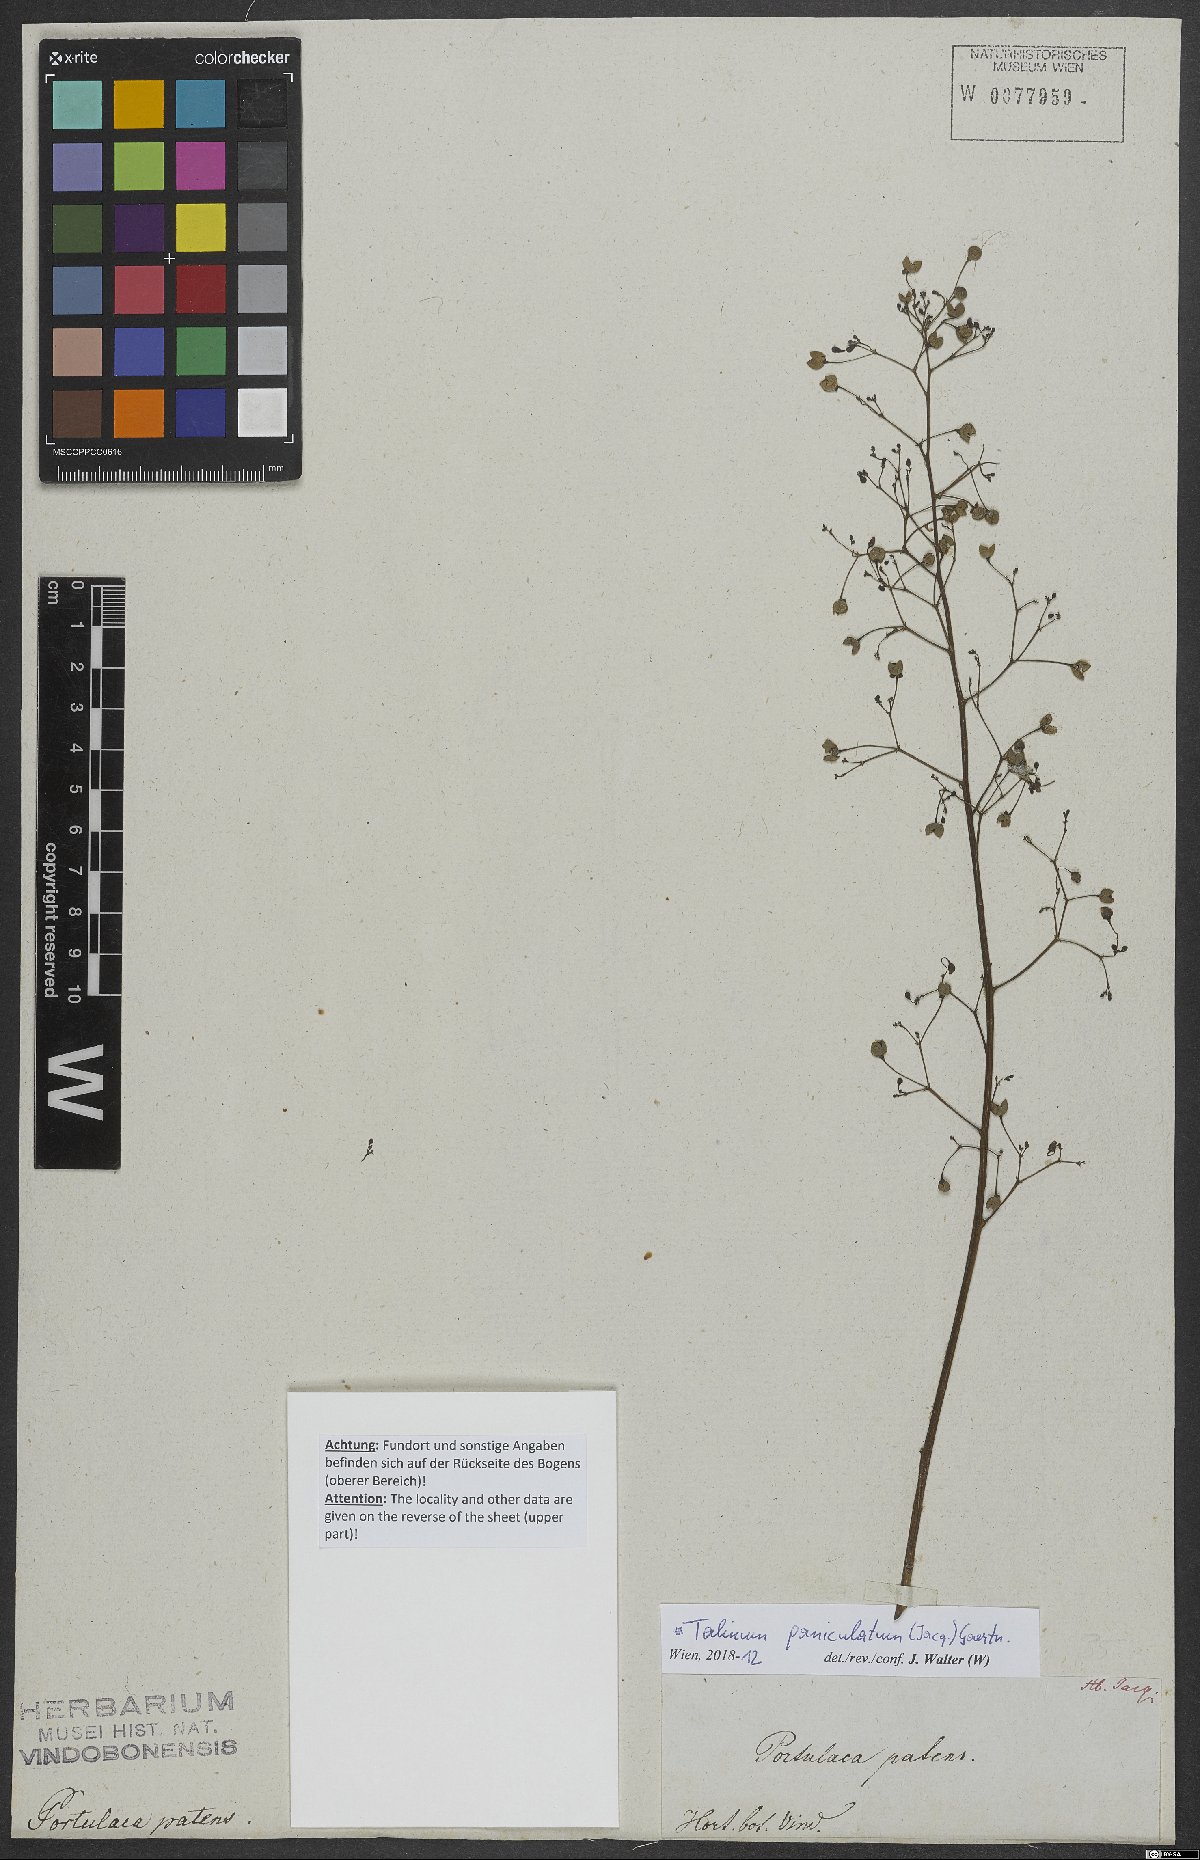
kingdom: Plantae
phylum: Tracheophyta
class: Magnoliopsida
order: Caryophyllales
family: Talinaceae
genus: Talinum
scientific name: Talinum paniculatum
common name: Jewels of opar
